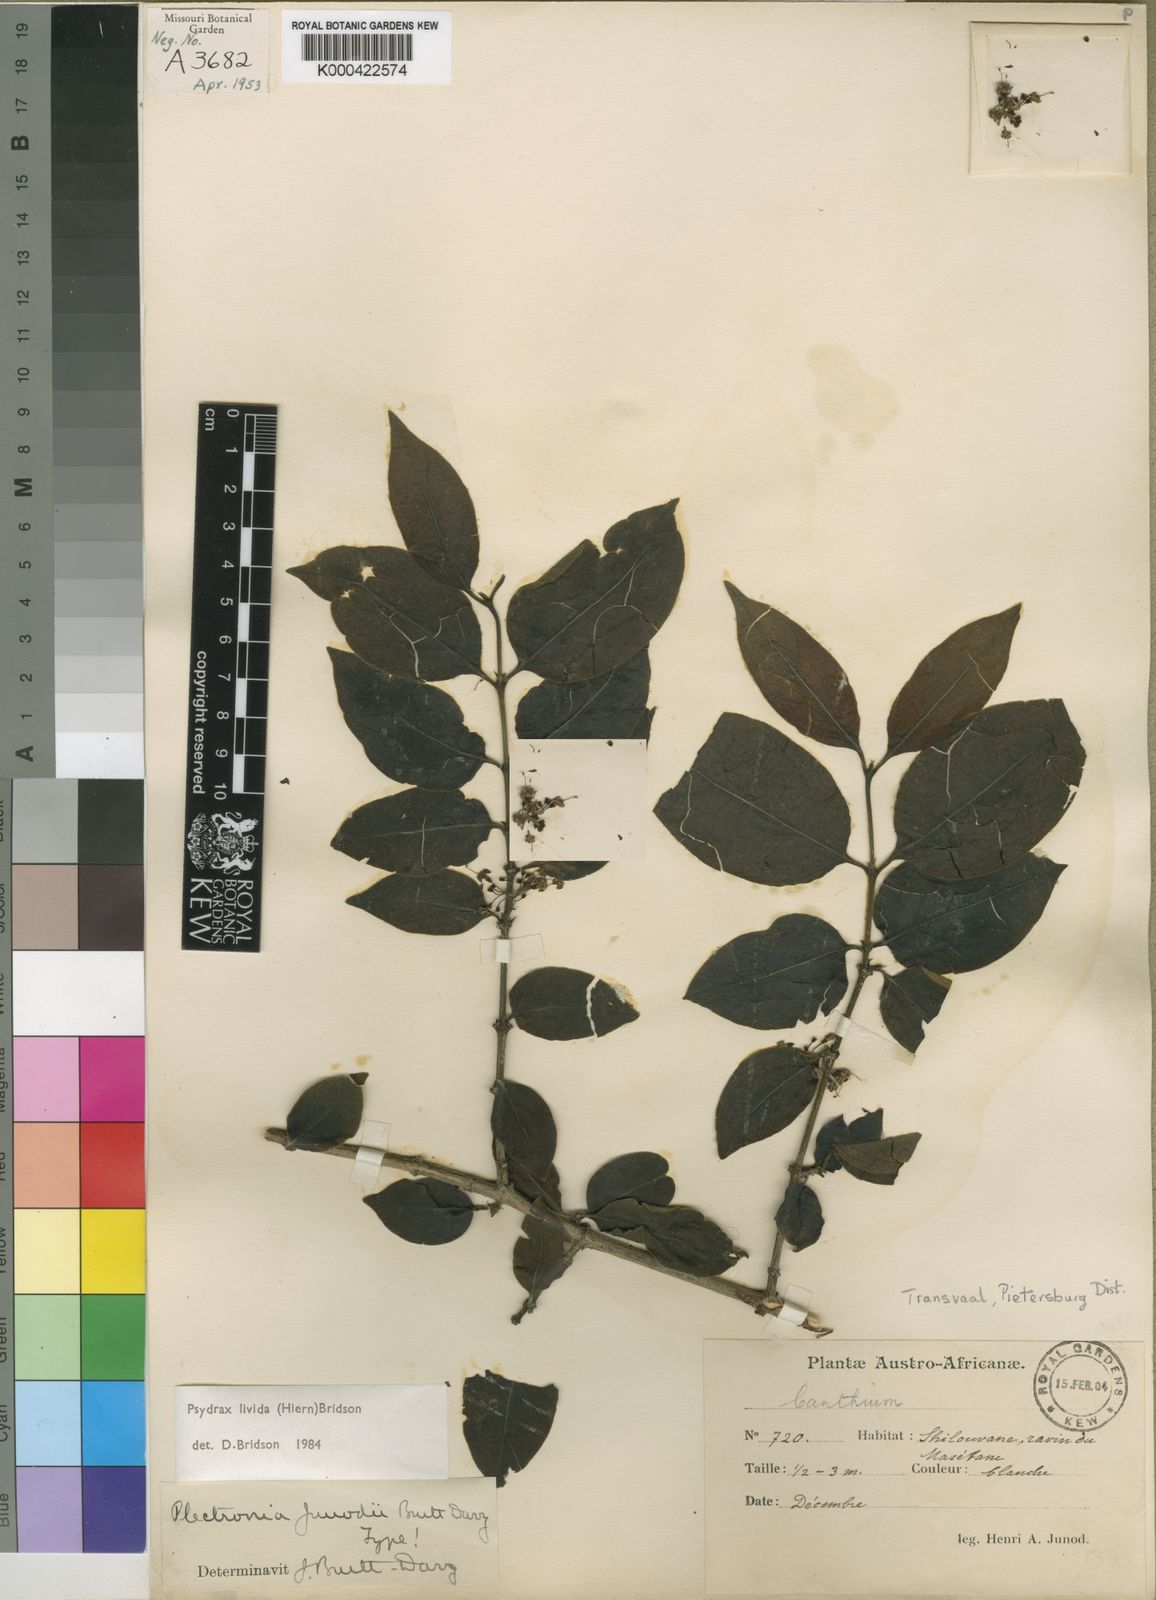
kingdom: Plantae
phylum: Tracheophyta
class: Magnoliopsida
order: Gentianales
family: Rubiaceae
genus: Psydrax
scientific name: Psydrax lividus
